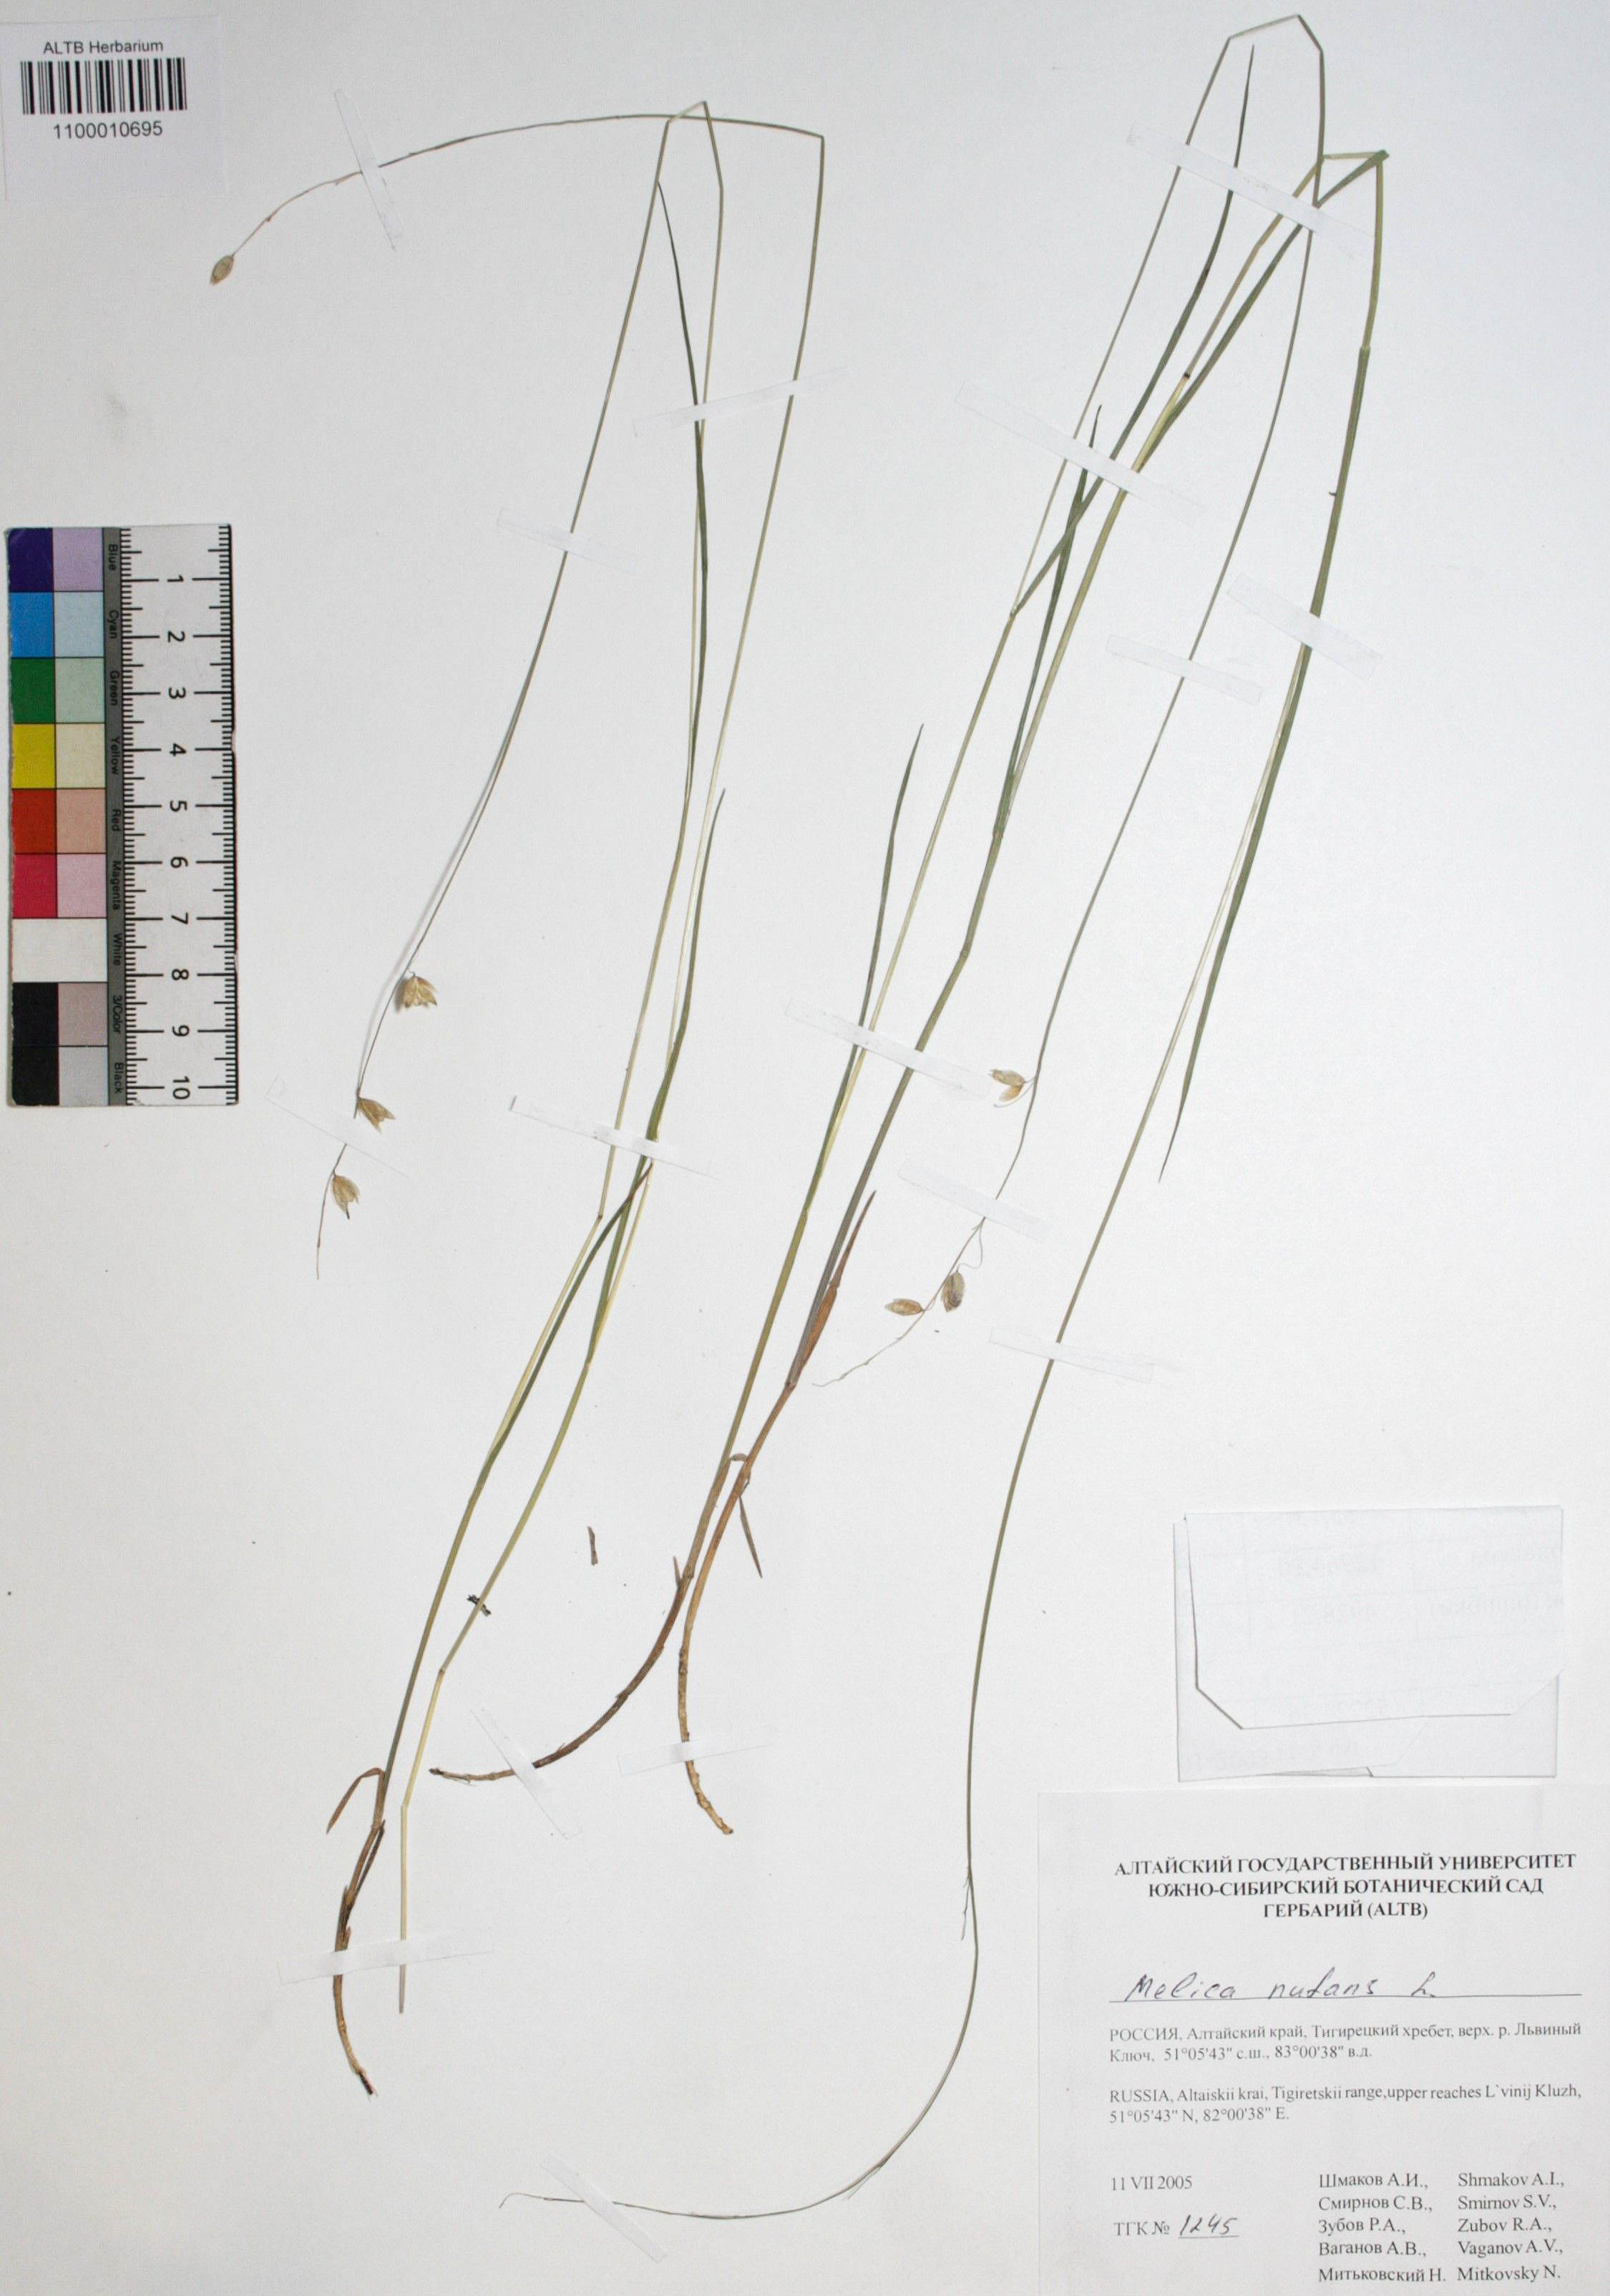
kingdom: Plantae
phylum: Tracheophyta
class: Liliopsida
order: Poales
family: Poaceae
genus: Melica
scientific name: Melica nutans
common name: Mountain melick
